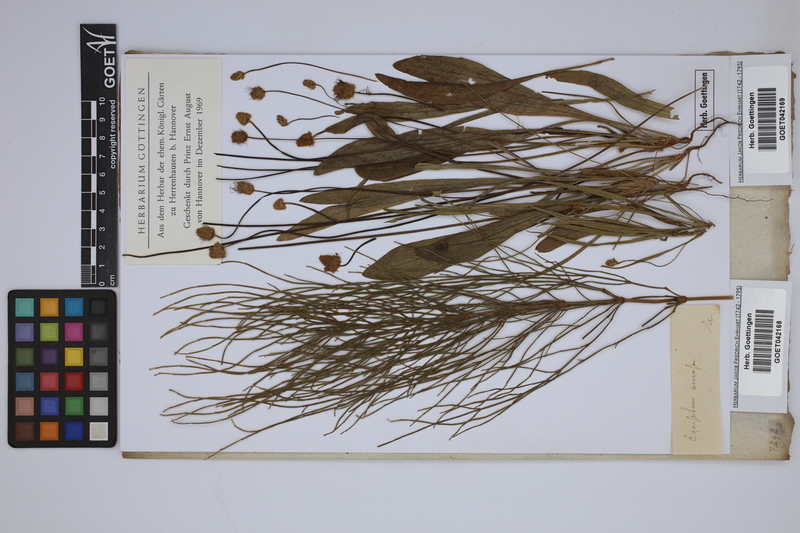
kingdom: Plantae
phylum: Tracheophyta
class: Polypodiopsida
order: Equisetales
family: Equisetaceae
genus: Equisetum
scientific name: Equisetum arvense
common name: Field horsetail
